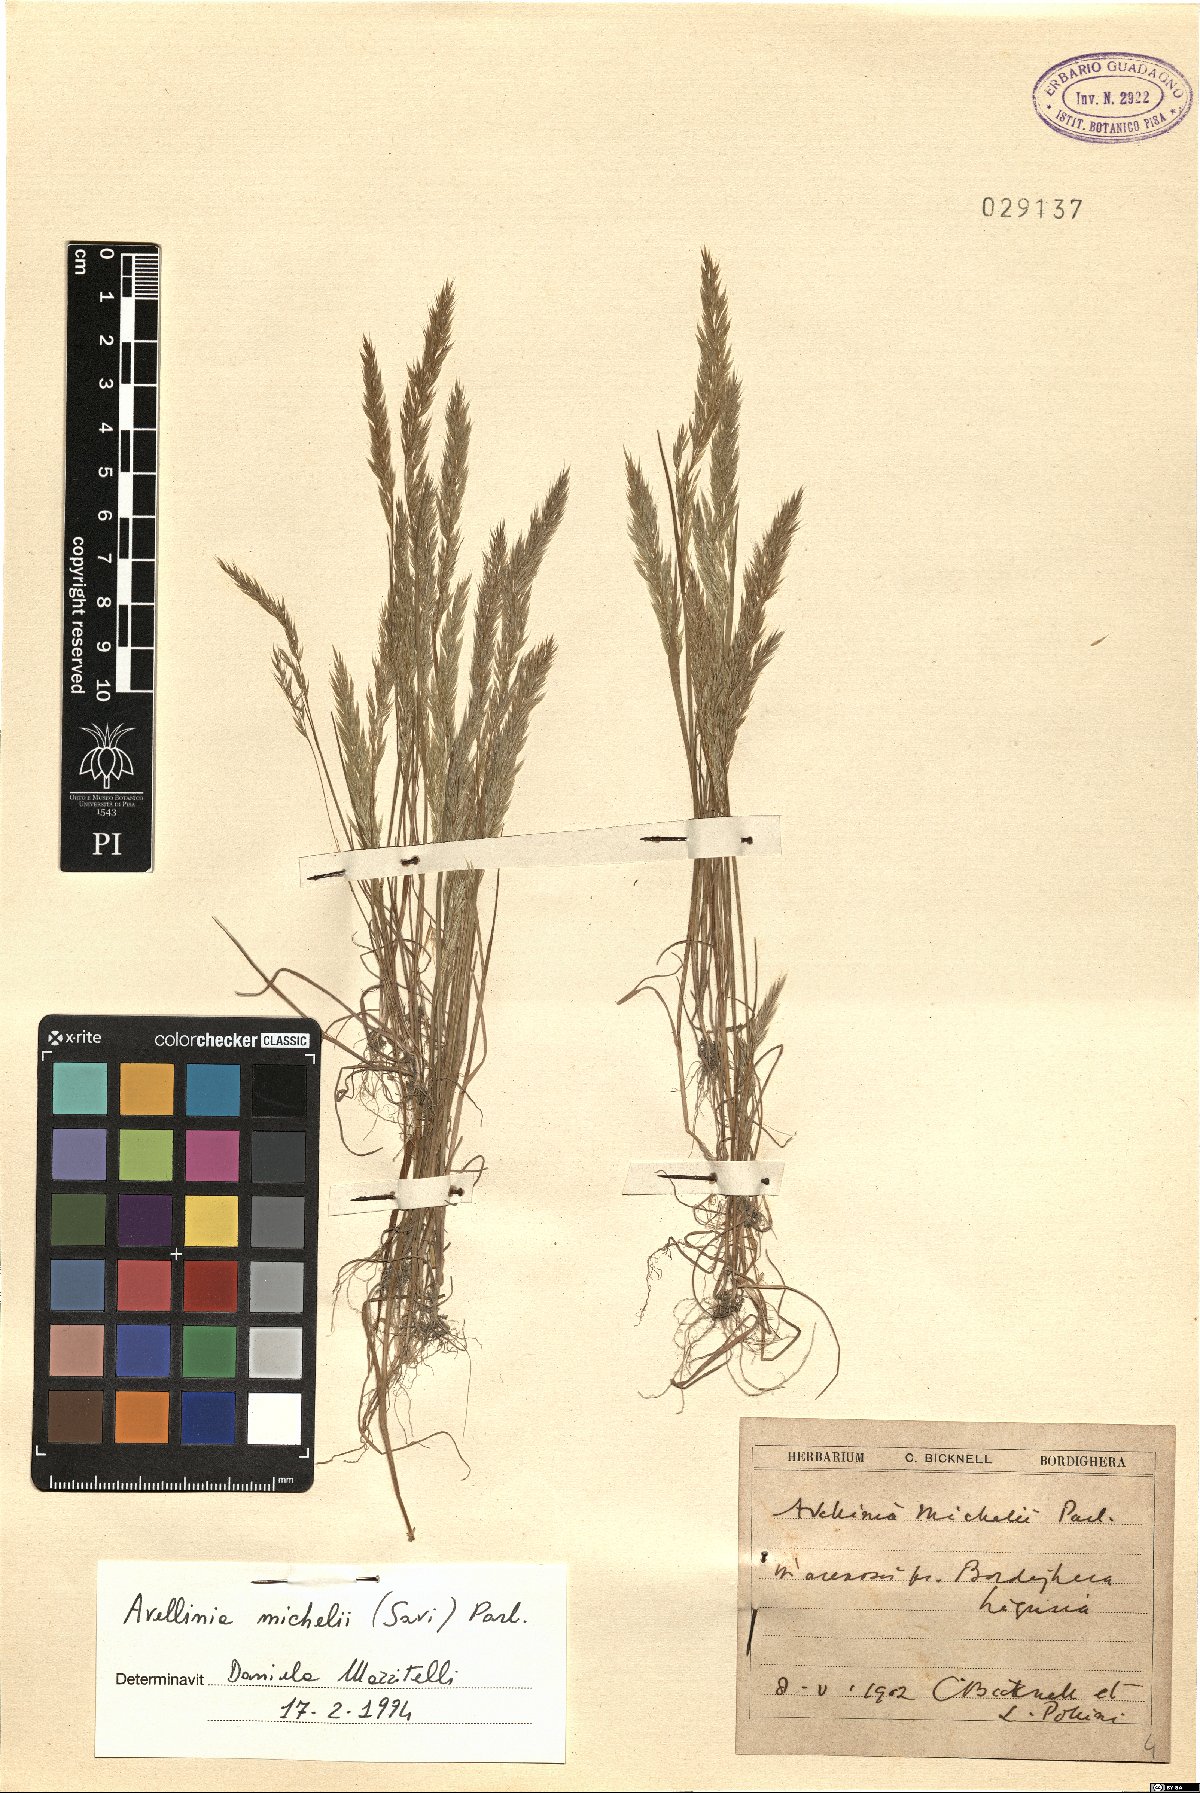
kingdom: Plantae
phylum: Tracheophyta
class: Liliopsida
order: Poales
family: Poaceae
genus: Avellinia
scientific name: Avellinia festucoides
